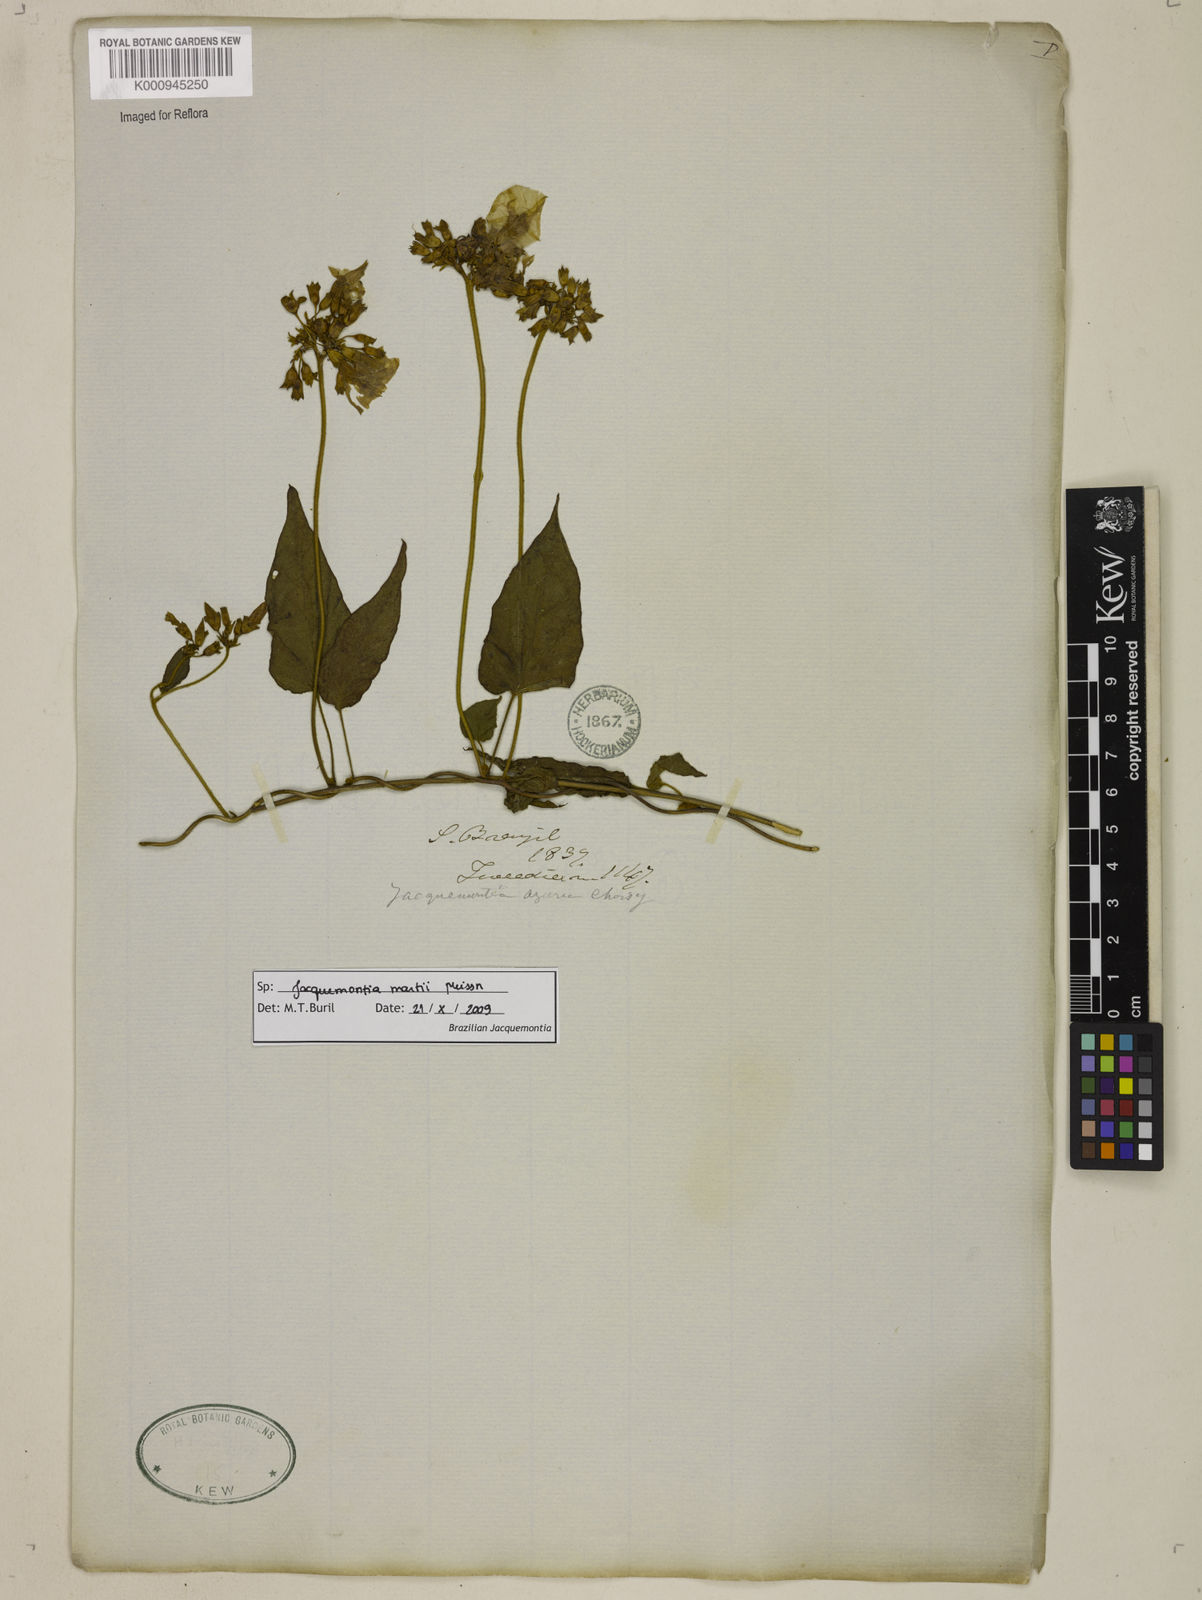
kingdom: Plantae
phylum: Tracheophyta
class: Magnoliopsida
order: Solanales
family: Convolvulaceae
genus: Jacquemontia
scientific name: Jacquemontia martii
